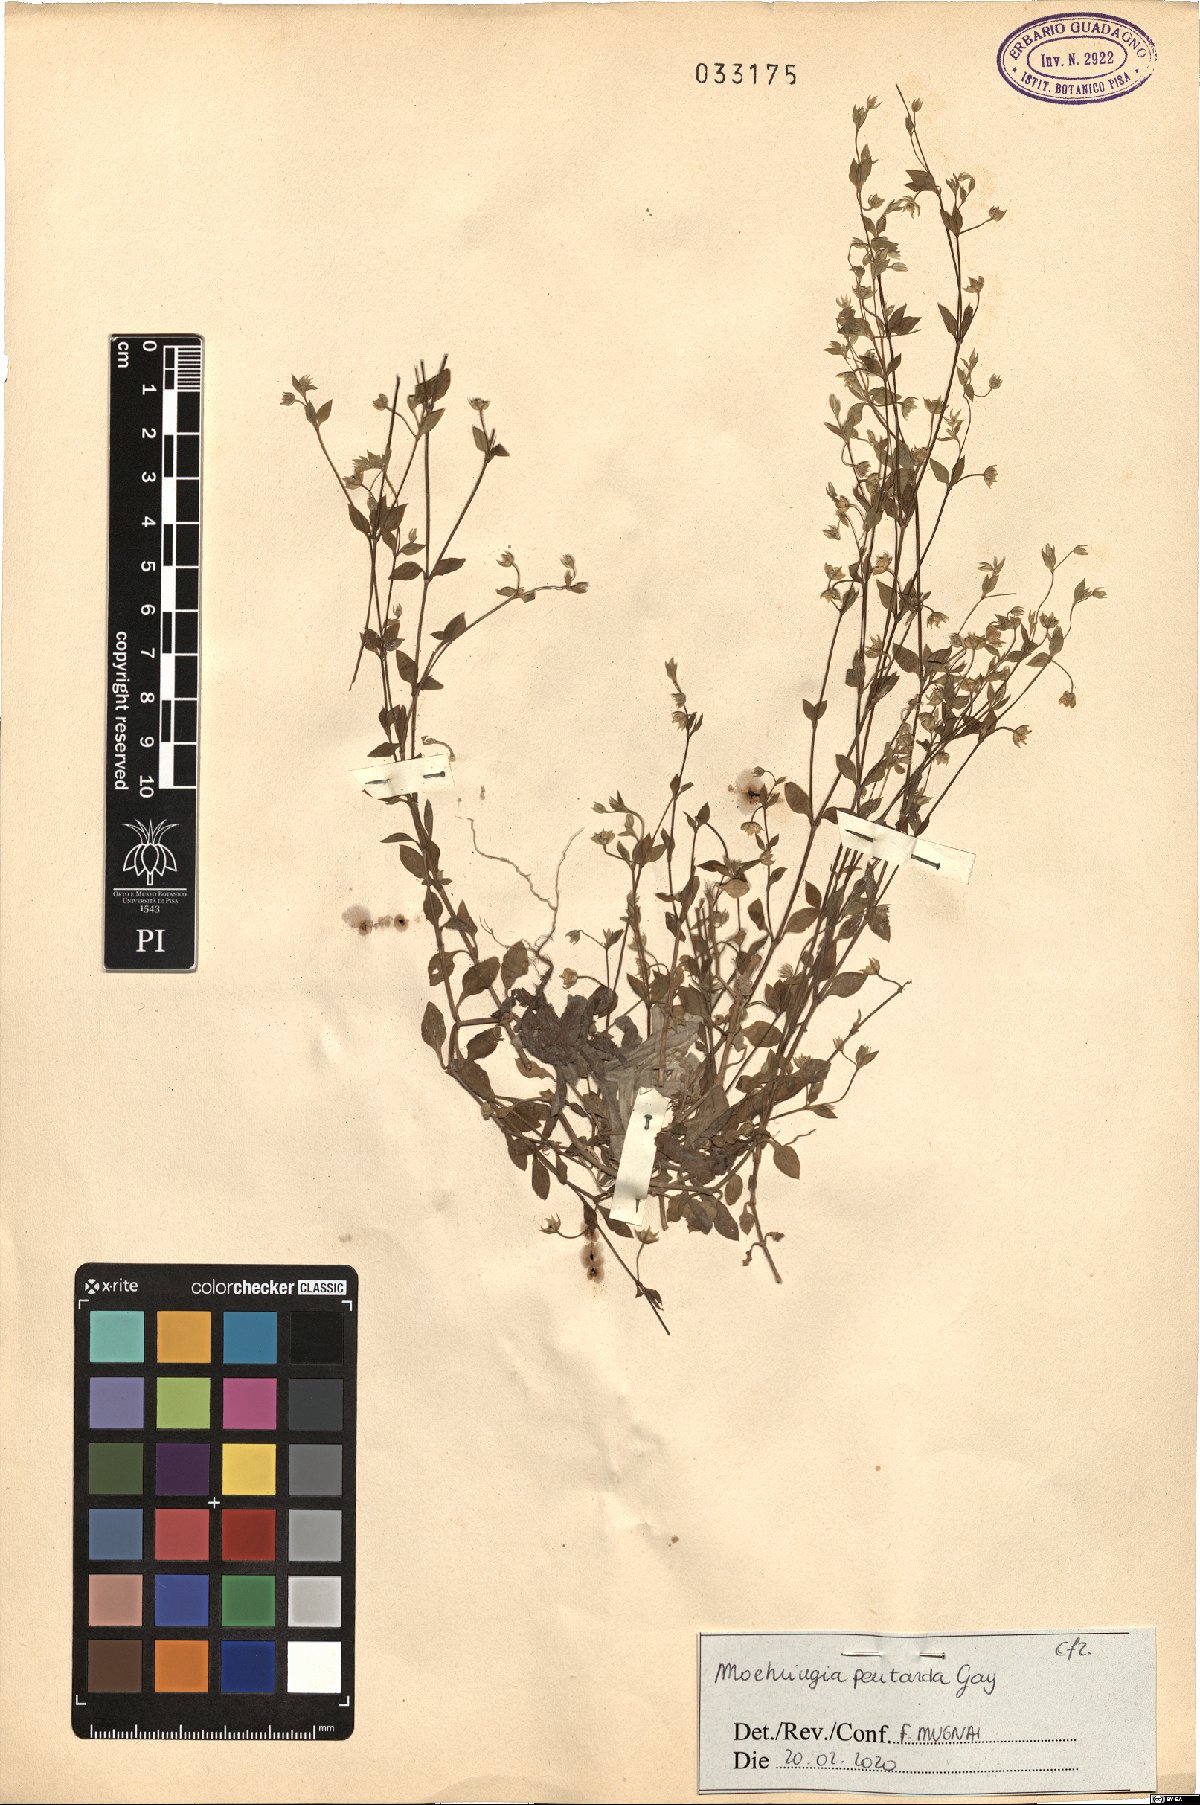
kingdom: Plantae
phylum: Tracheophyta
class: Magnoliopsida
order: Caryophyllales
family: Caryophyllaceae
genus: Moehringia
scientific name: Moehringia pentandra
